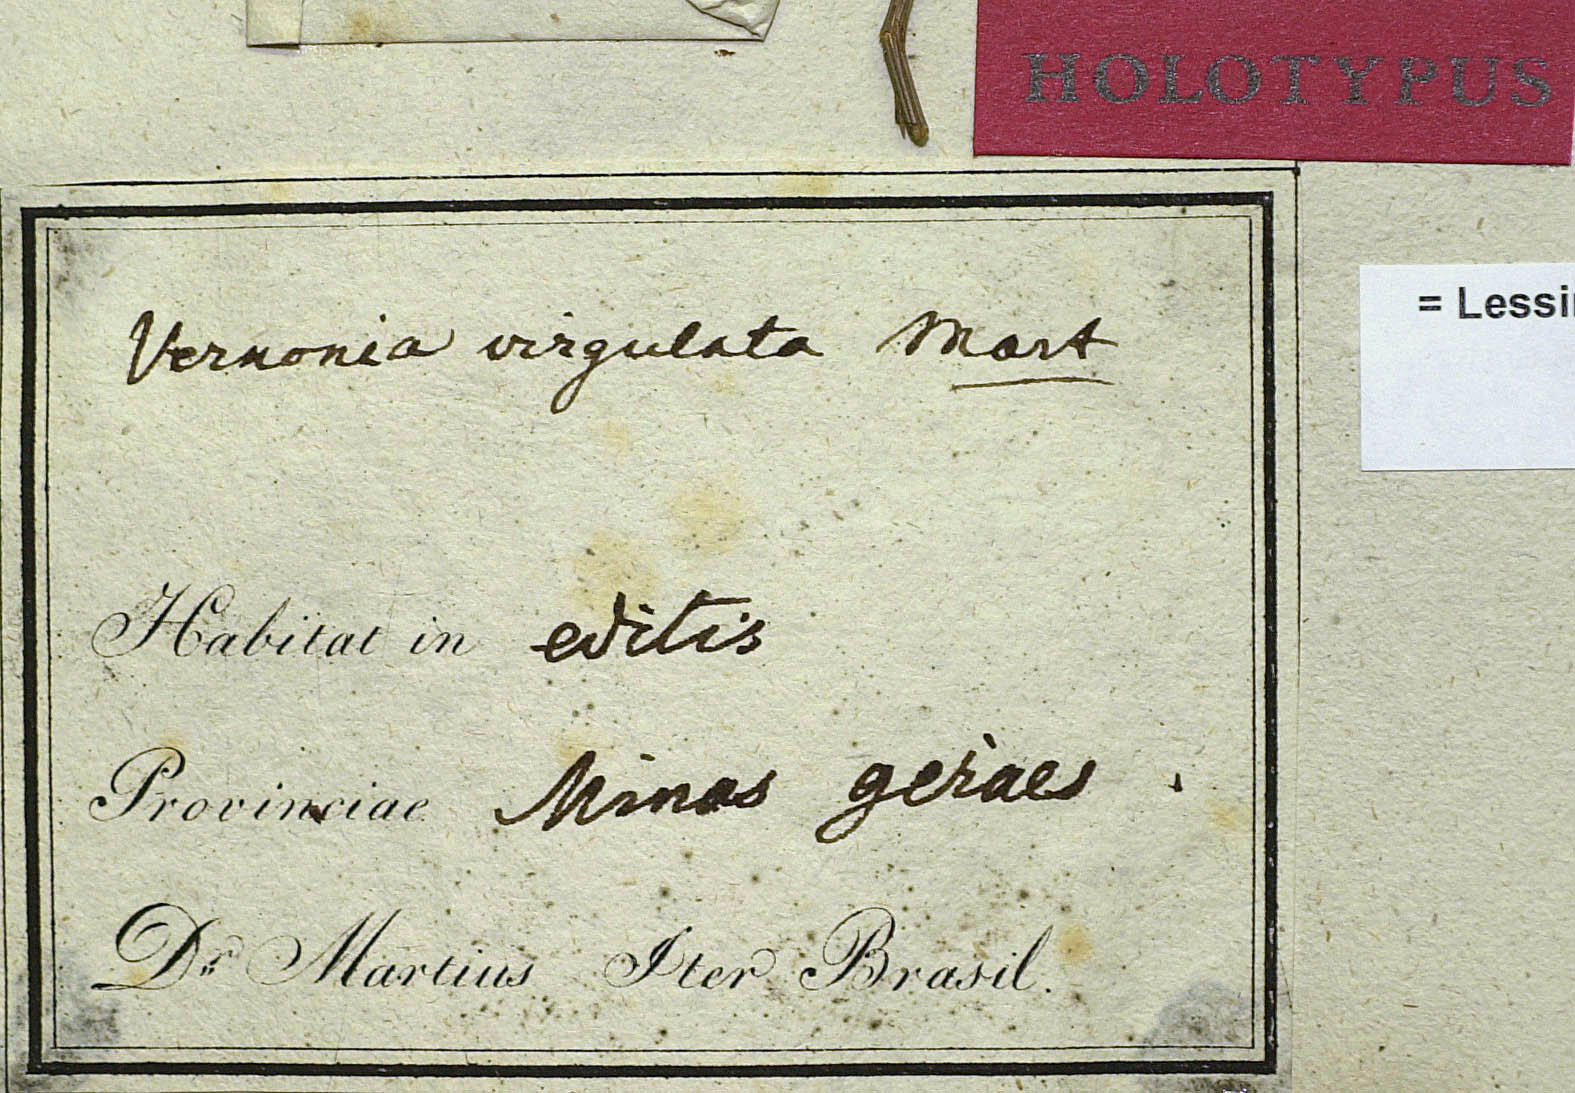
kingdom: Plantae
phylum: Tracheophyta
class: Magnoliopsida
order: Asterales
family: Asteraceae
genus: Lessingianthus
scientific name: Lessingianthus virgulatus
